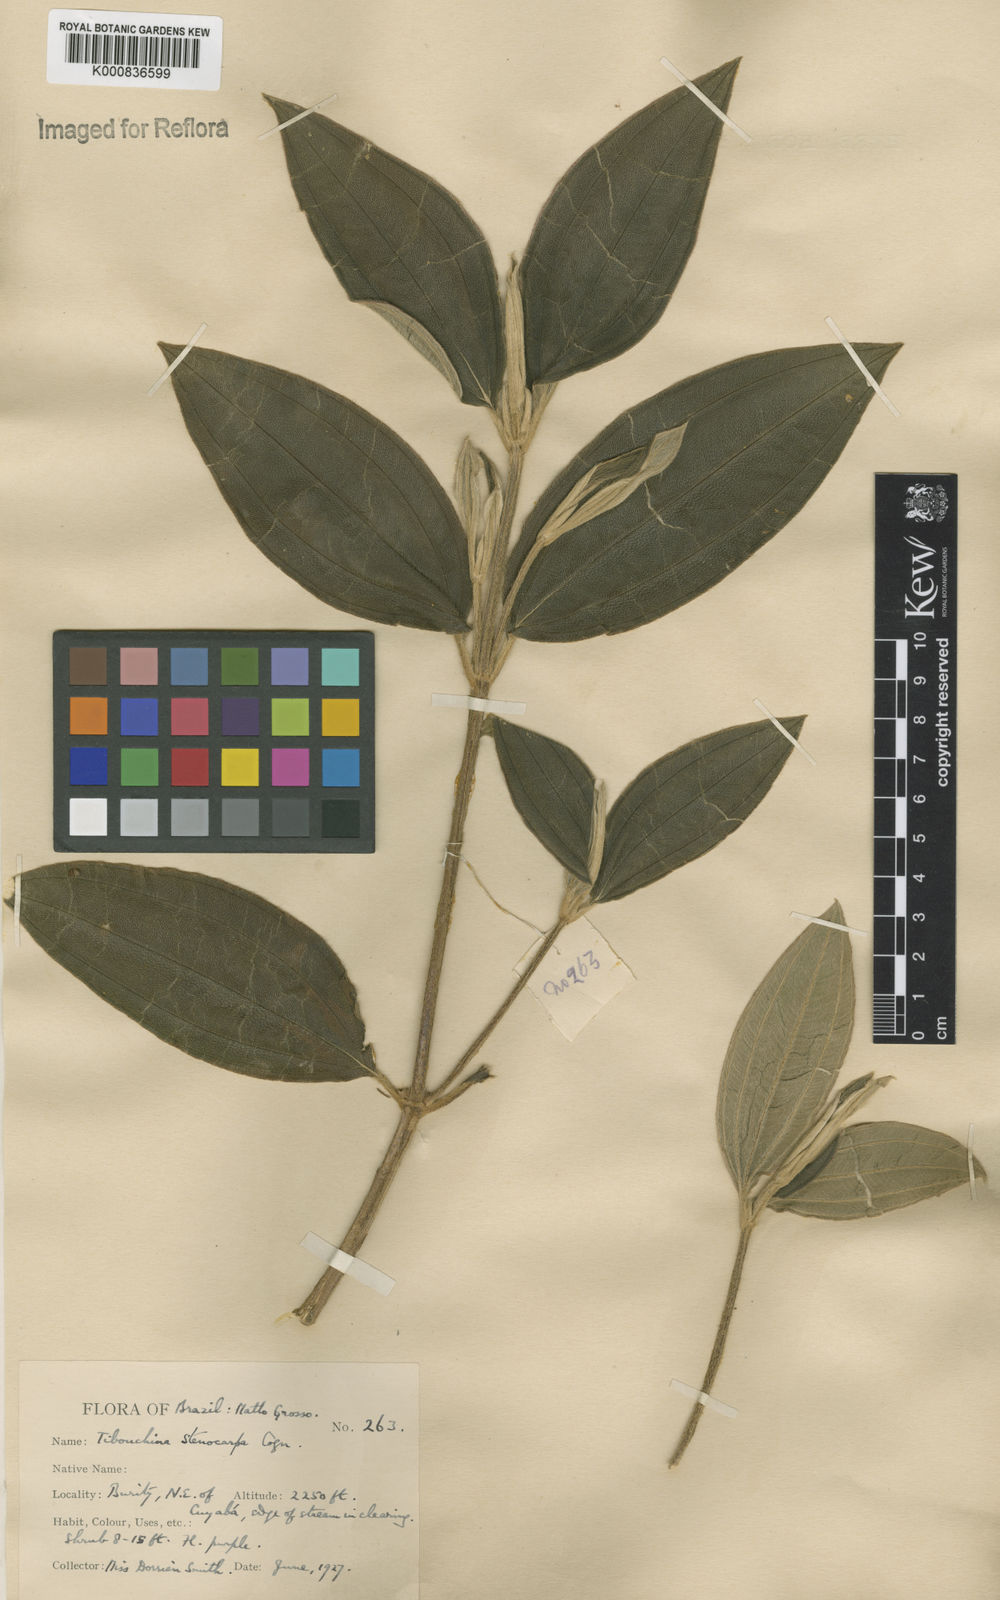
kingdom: Plantae
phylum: Tracheophyta
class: Magnoliopsida
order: Myrtales
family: Melastomataceae
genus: Pleroma
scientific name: Pleroma stenocarpum
